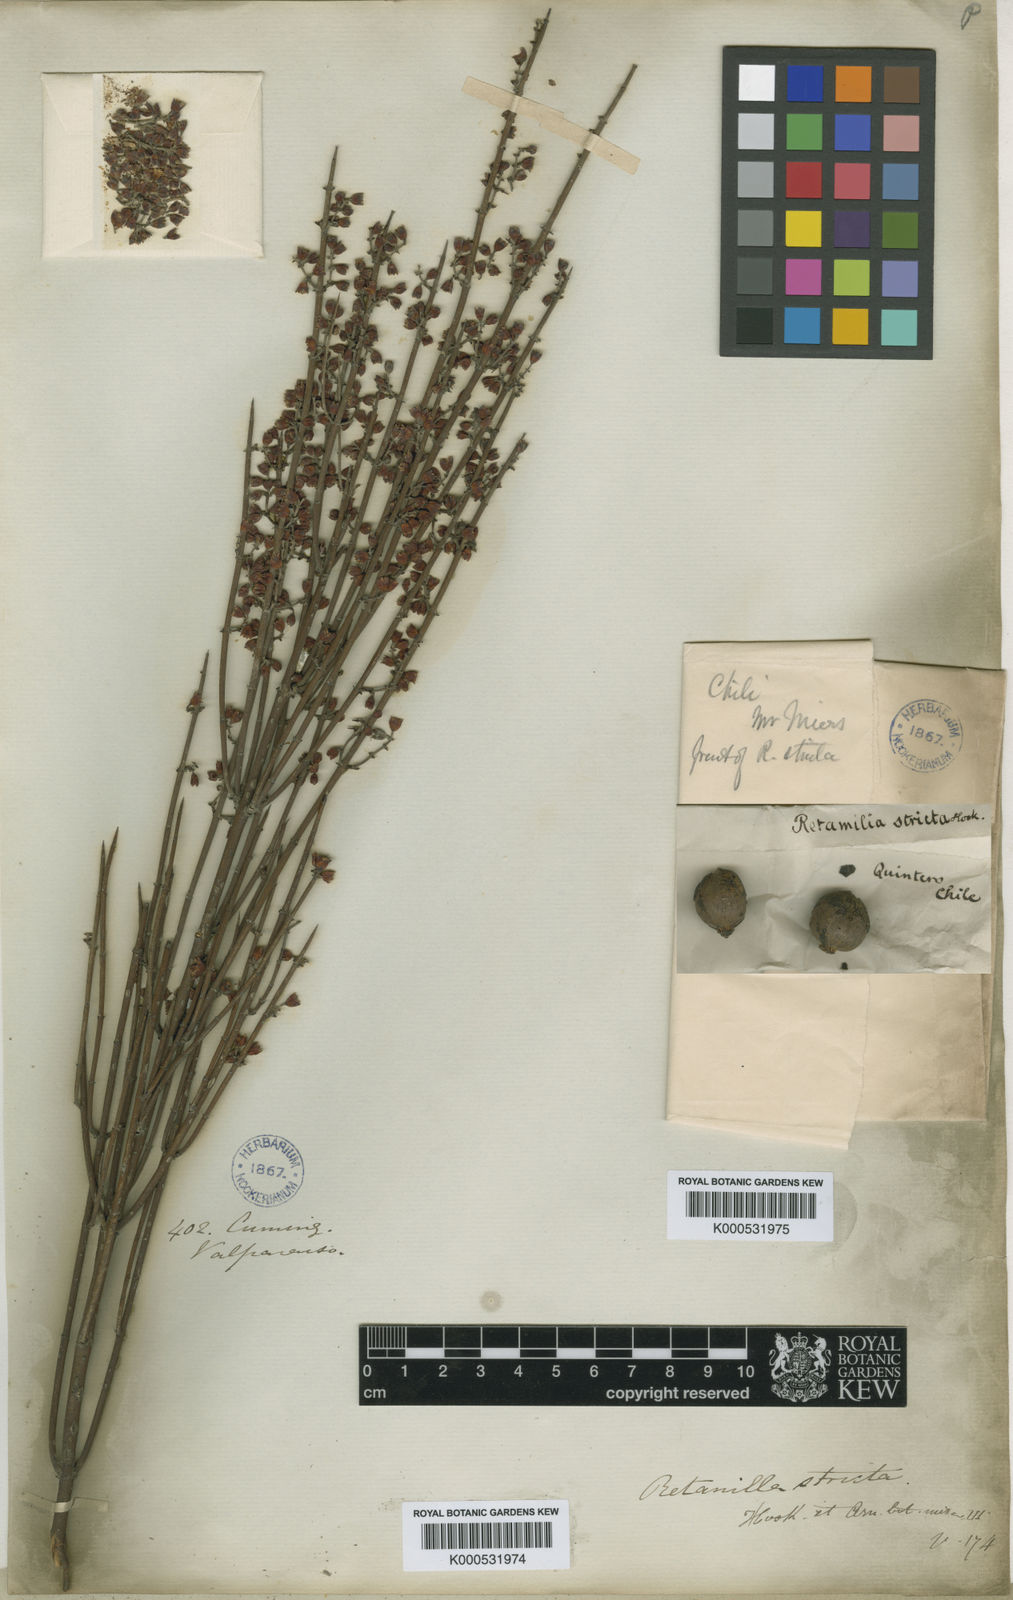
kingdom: Plantae
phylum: Tracheophyta
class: Magnoliopsida
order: Rosales
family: Rhamnaceae
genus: Retanilla
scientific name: Retanilla stricta
